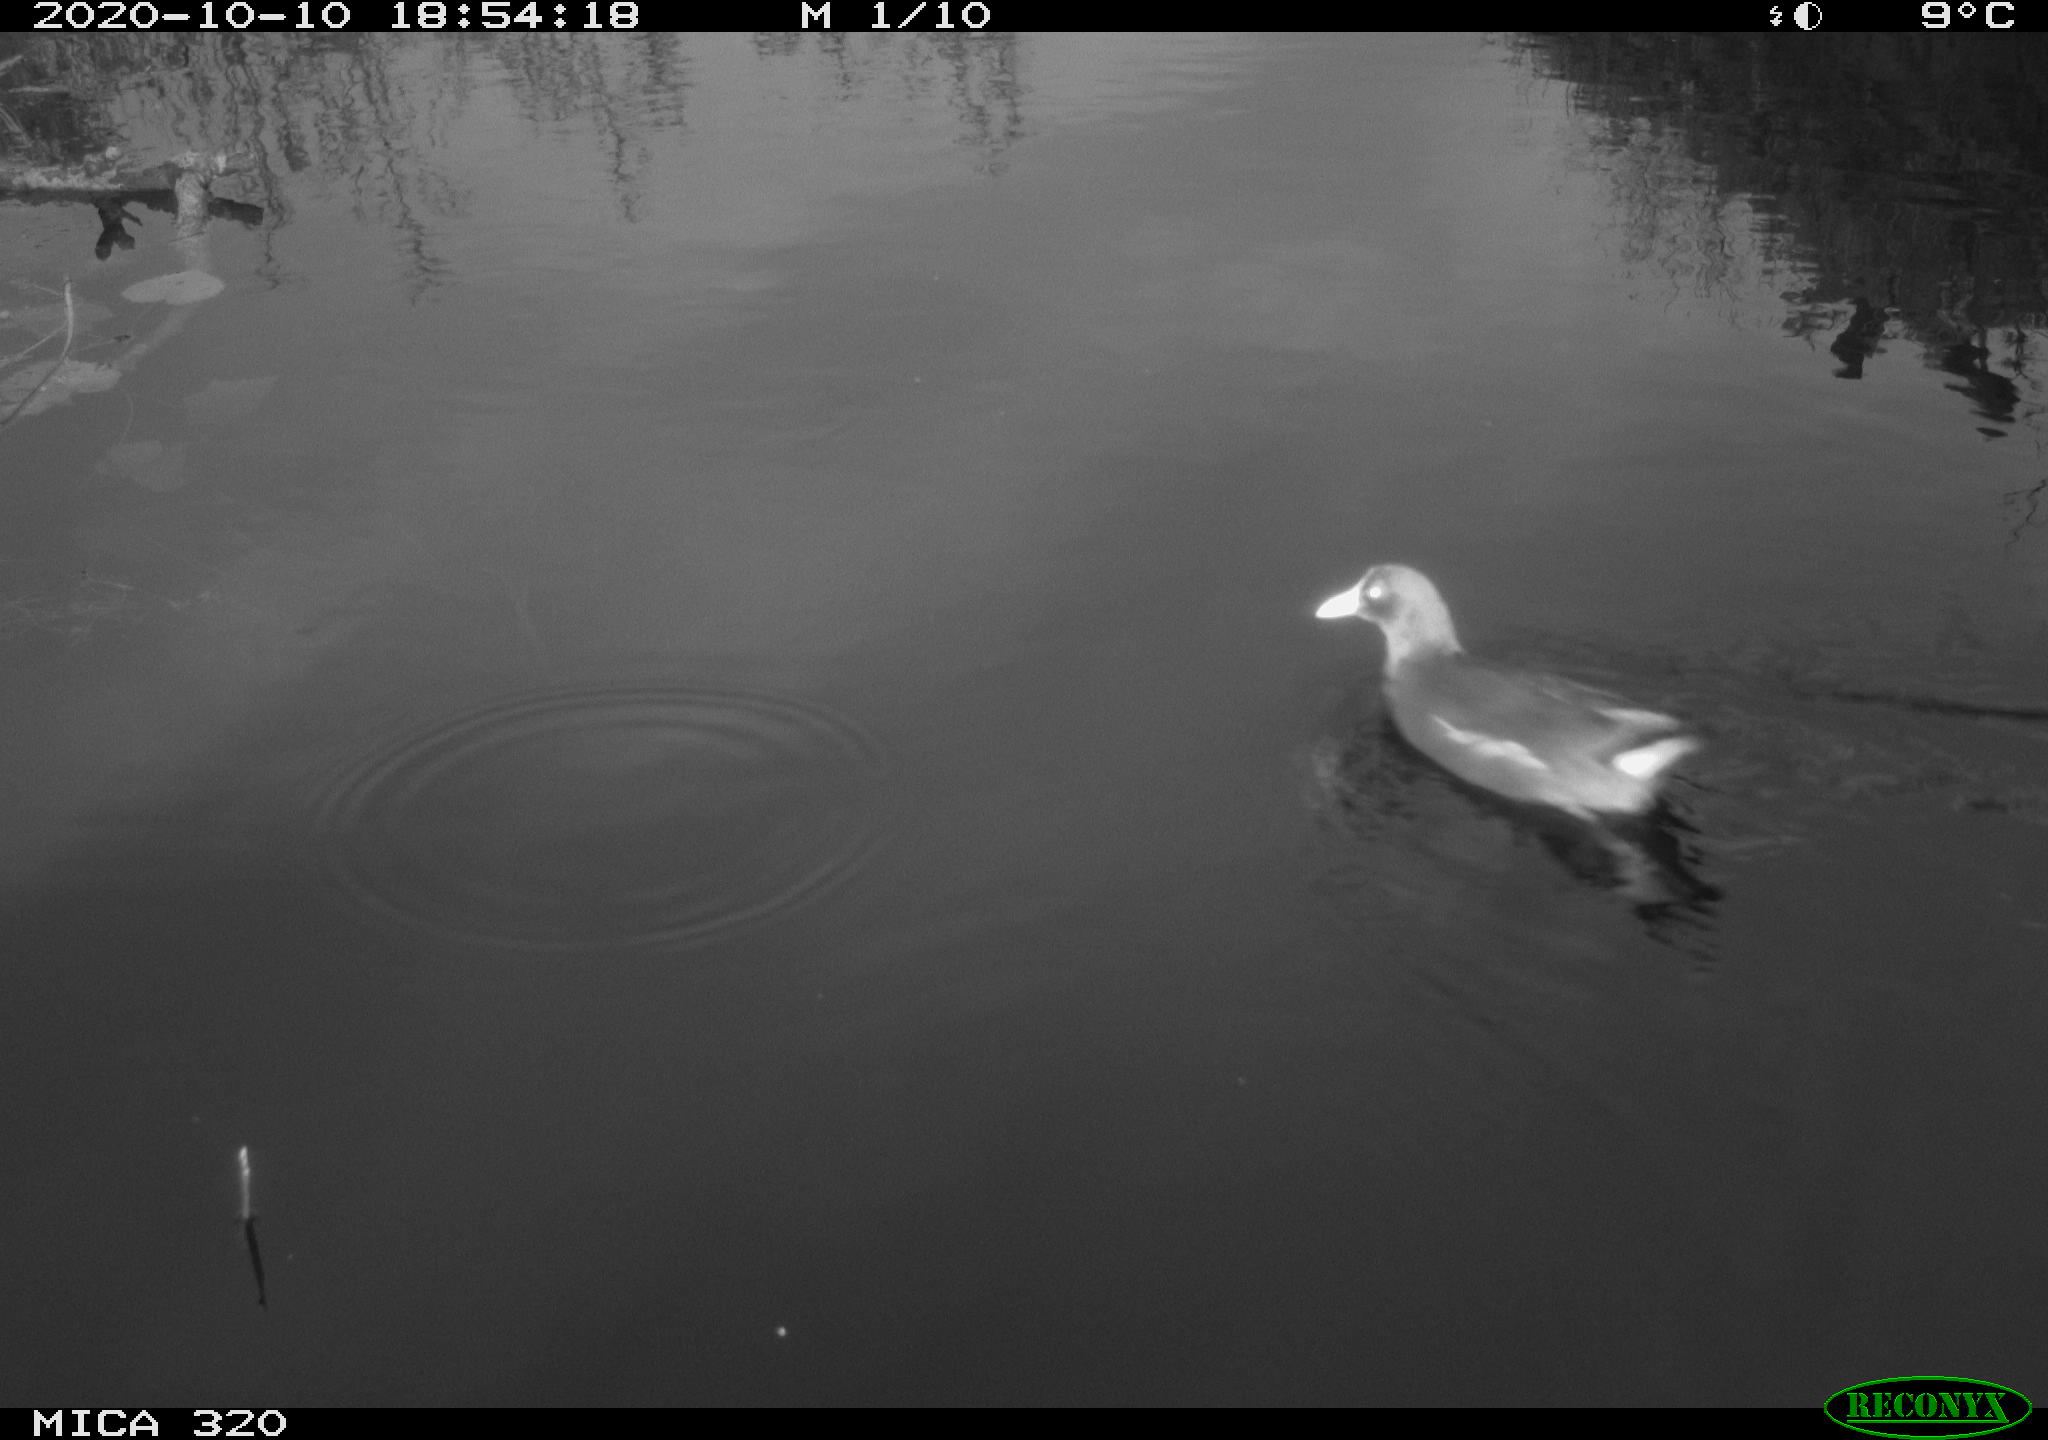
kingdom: Animalia
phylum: Chordata
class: Aves
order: Gruiformes
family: Rallidae
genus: Gallinula
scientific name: Gallinula chloropus
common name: Common moorhen
